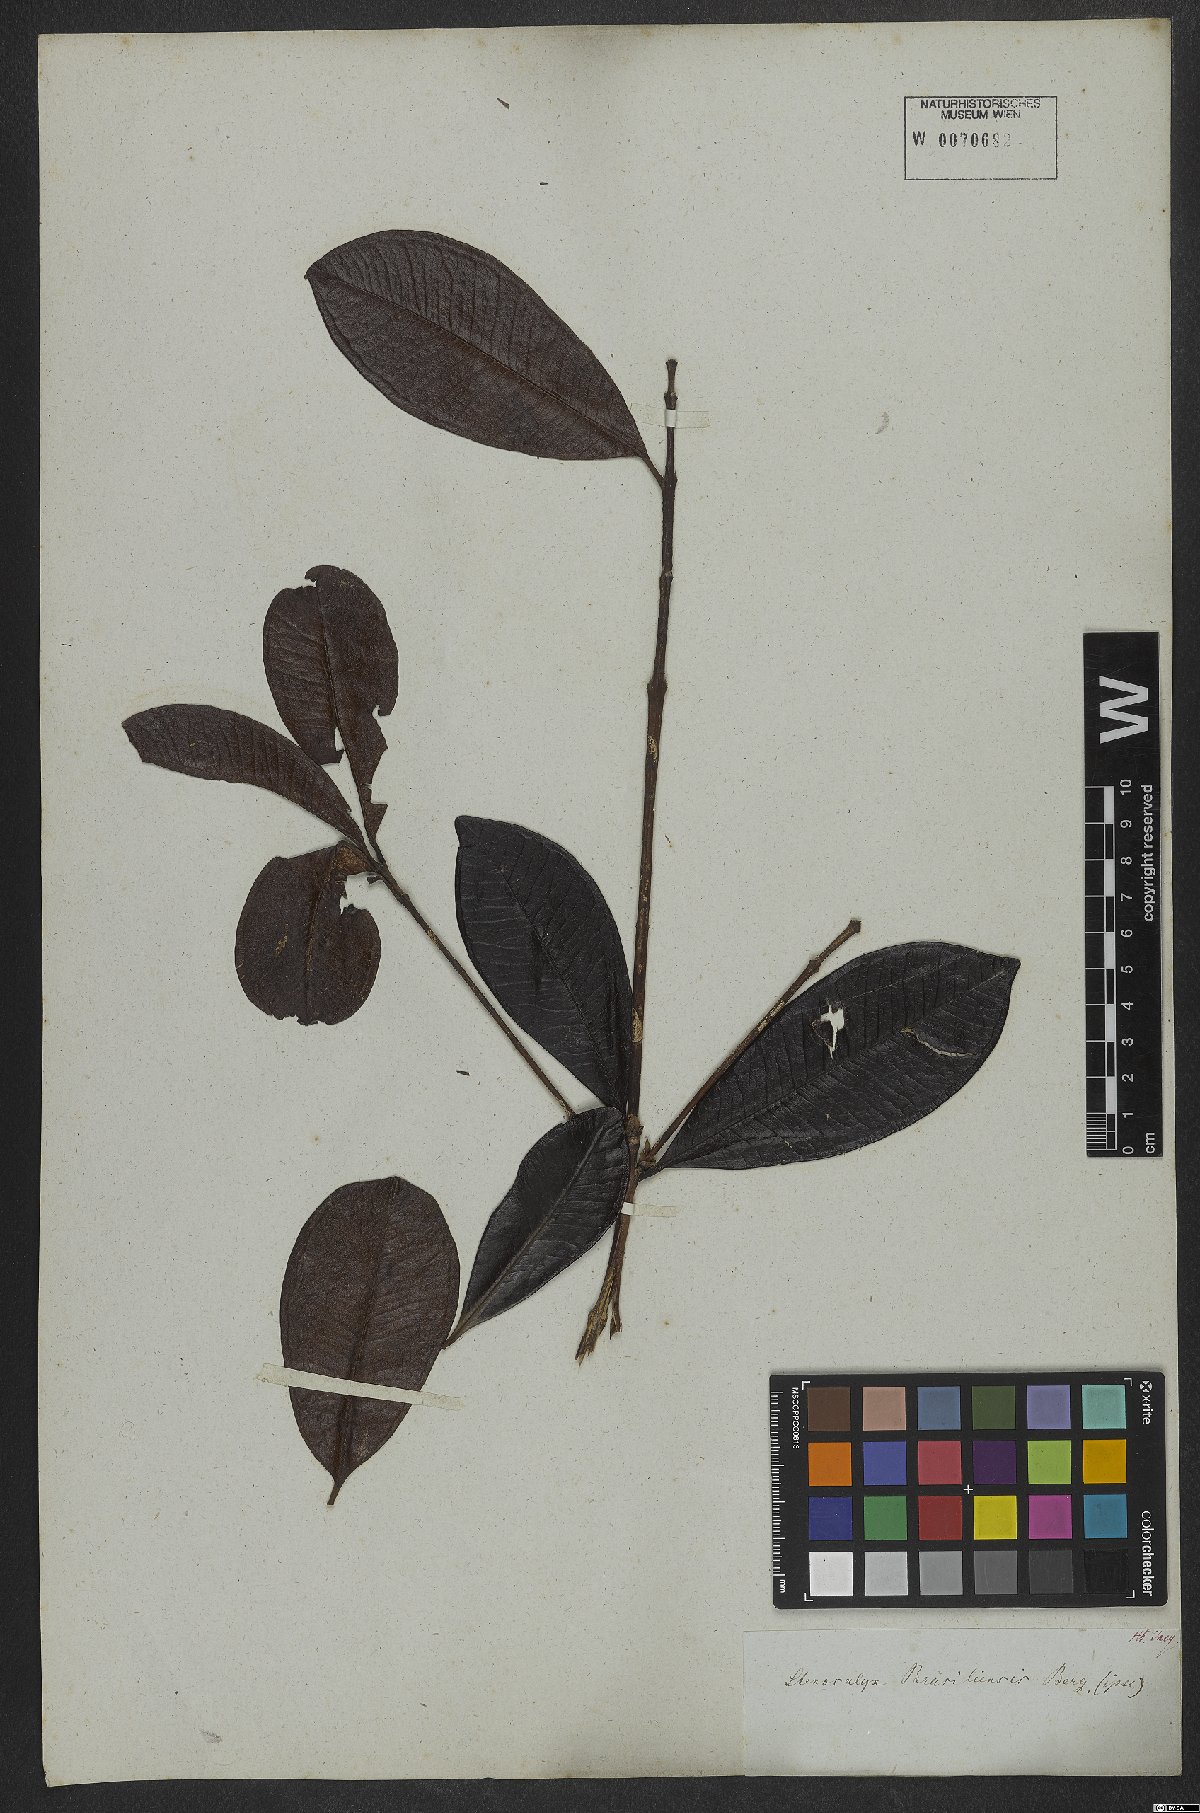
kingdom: Plantae
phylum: Tracheophyta
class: Magnoliopsida
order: Myrtales
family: Myrtaceae
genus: Eugenia
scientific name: Eugenia brasiliensis
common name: Grumichama
